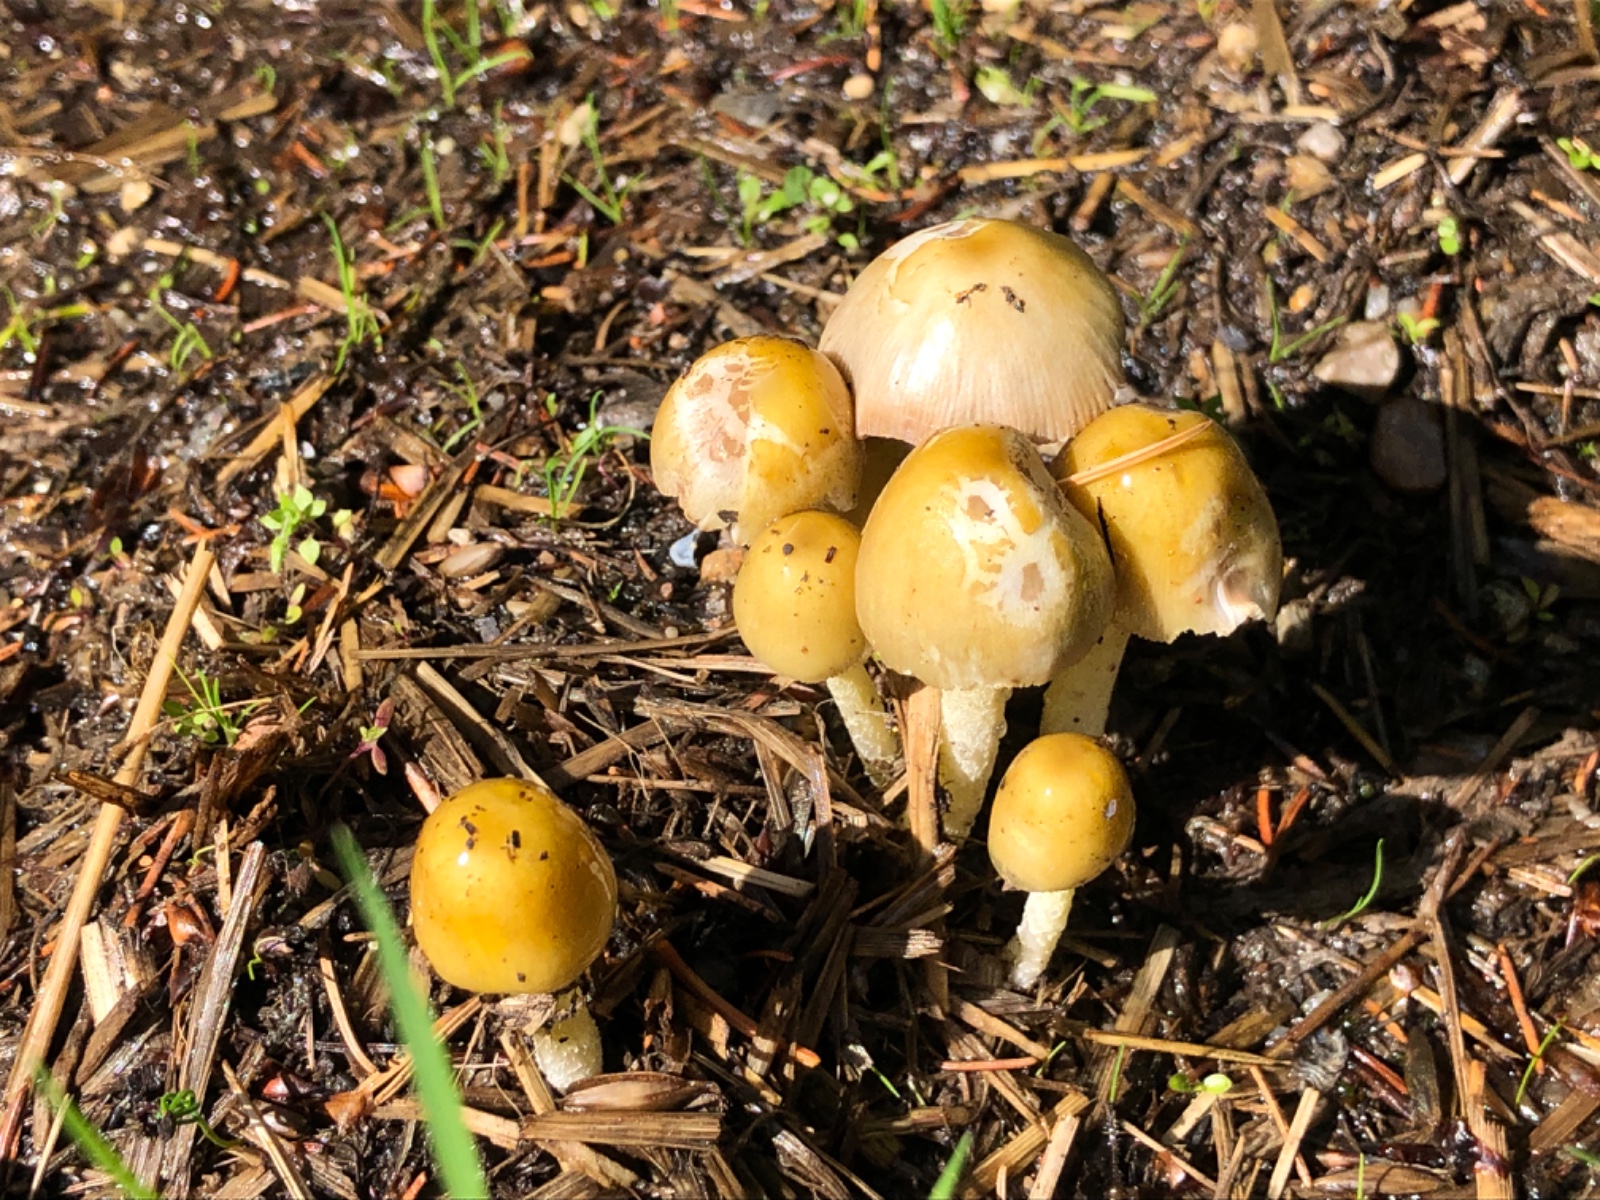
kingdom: Fungi
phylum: Basidiomycota
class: Agaricomycetes
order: Agaricales
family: Bolbitiaceae
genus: Bolbitius
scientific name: Bolbitius titubans
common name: almindelig gulhat
